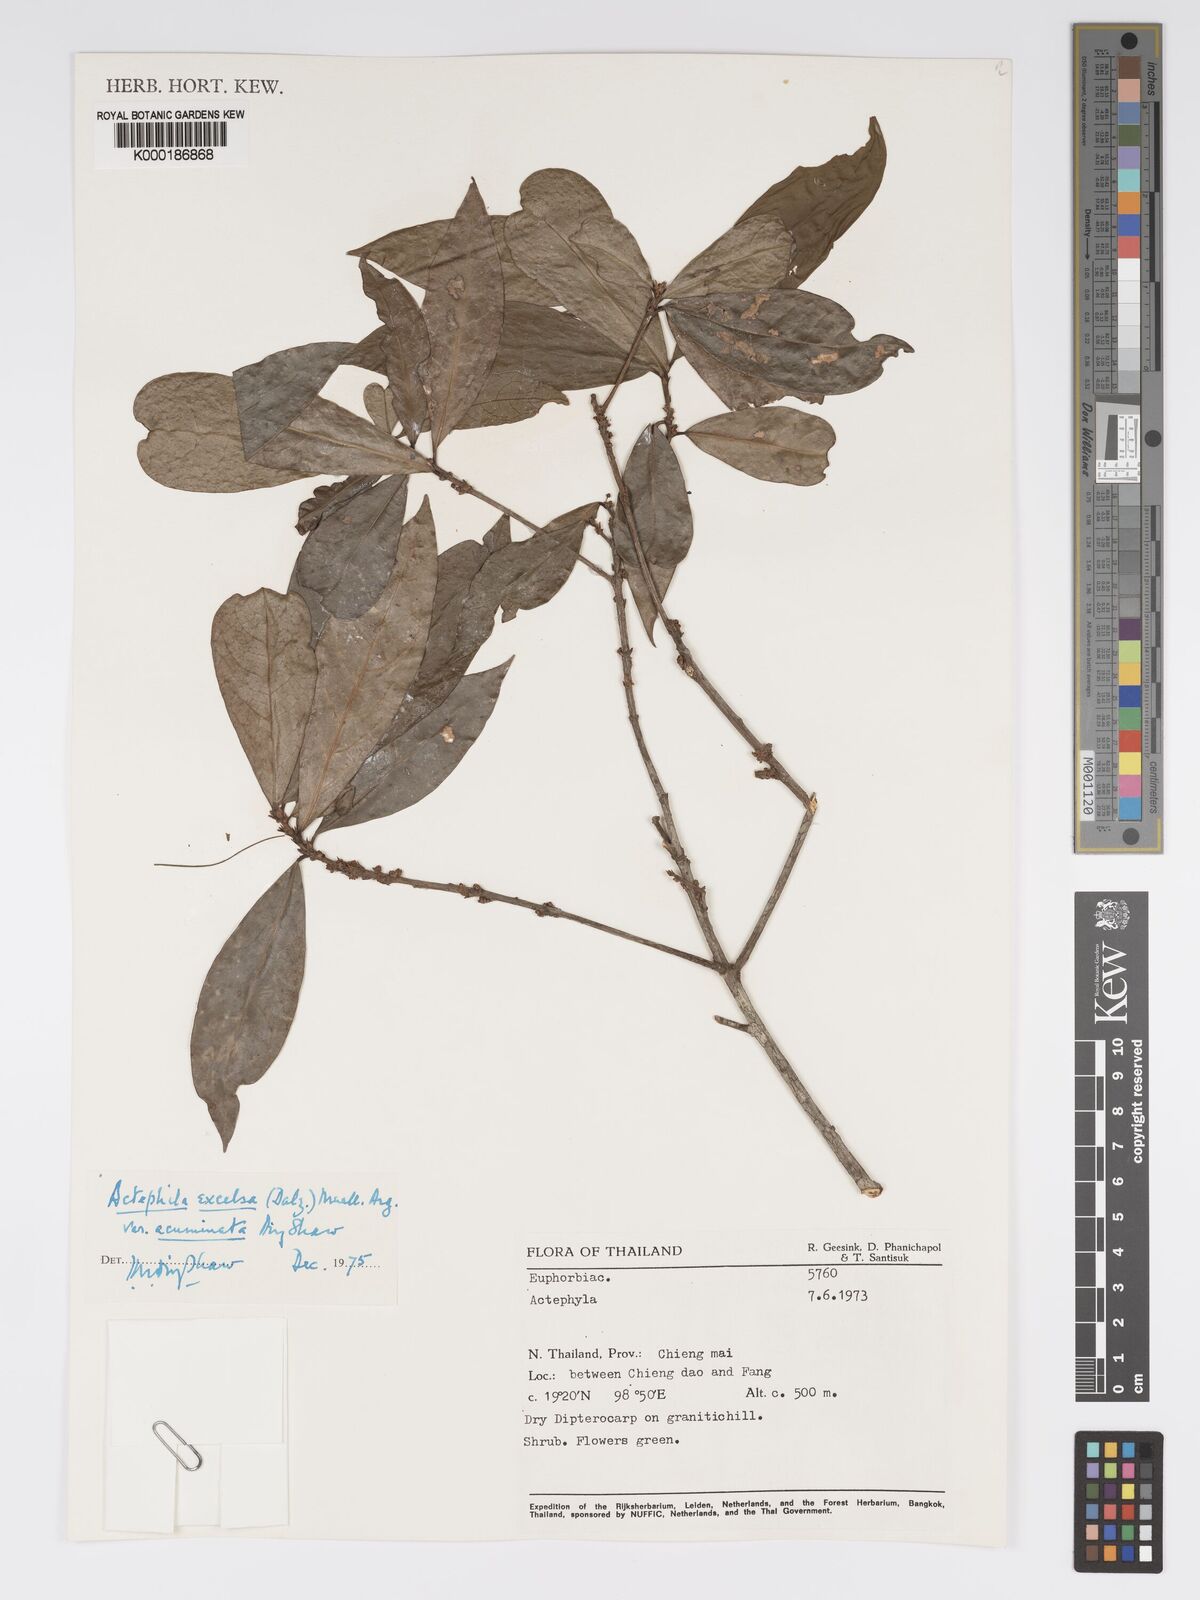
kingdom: Plantae
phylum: Tracheophyta
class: Magnoliopsida
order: Malpighiales
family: Phyllanthaceae
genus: Actephila
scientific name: Actephila subsessilis
